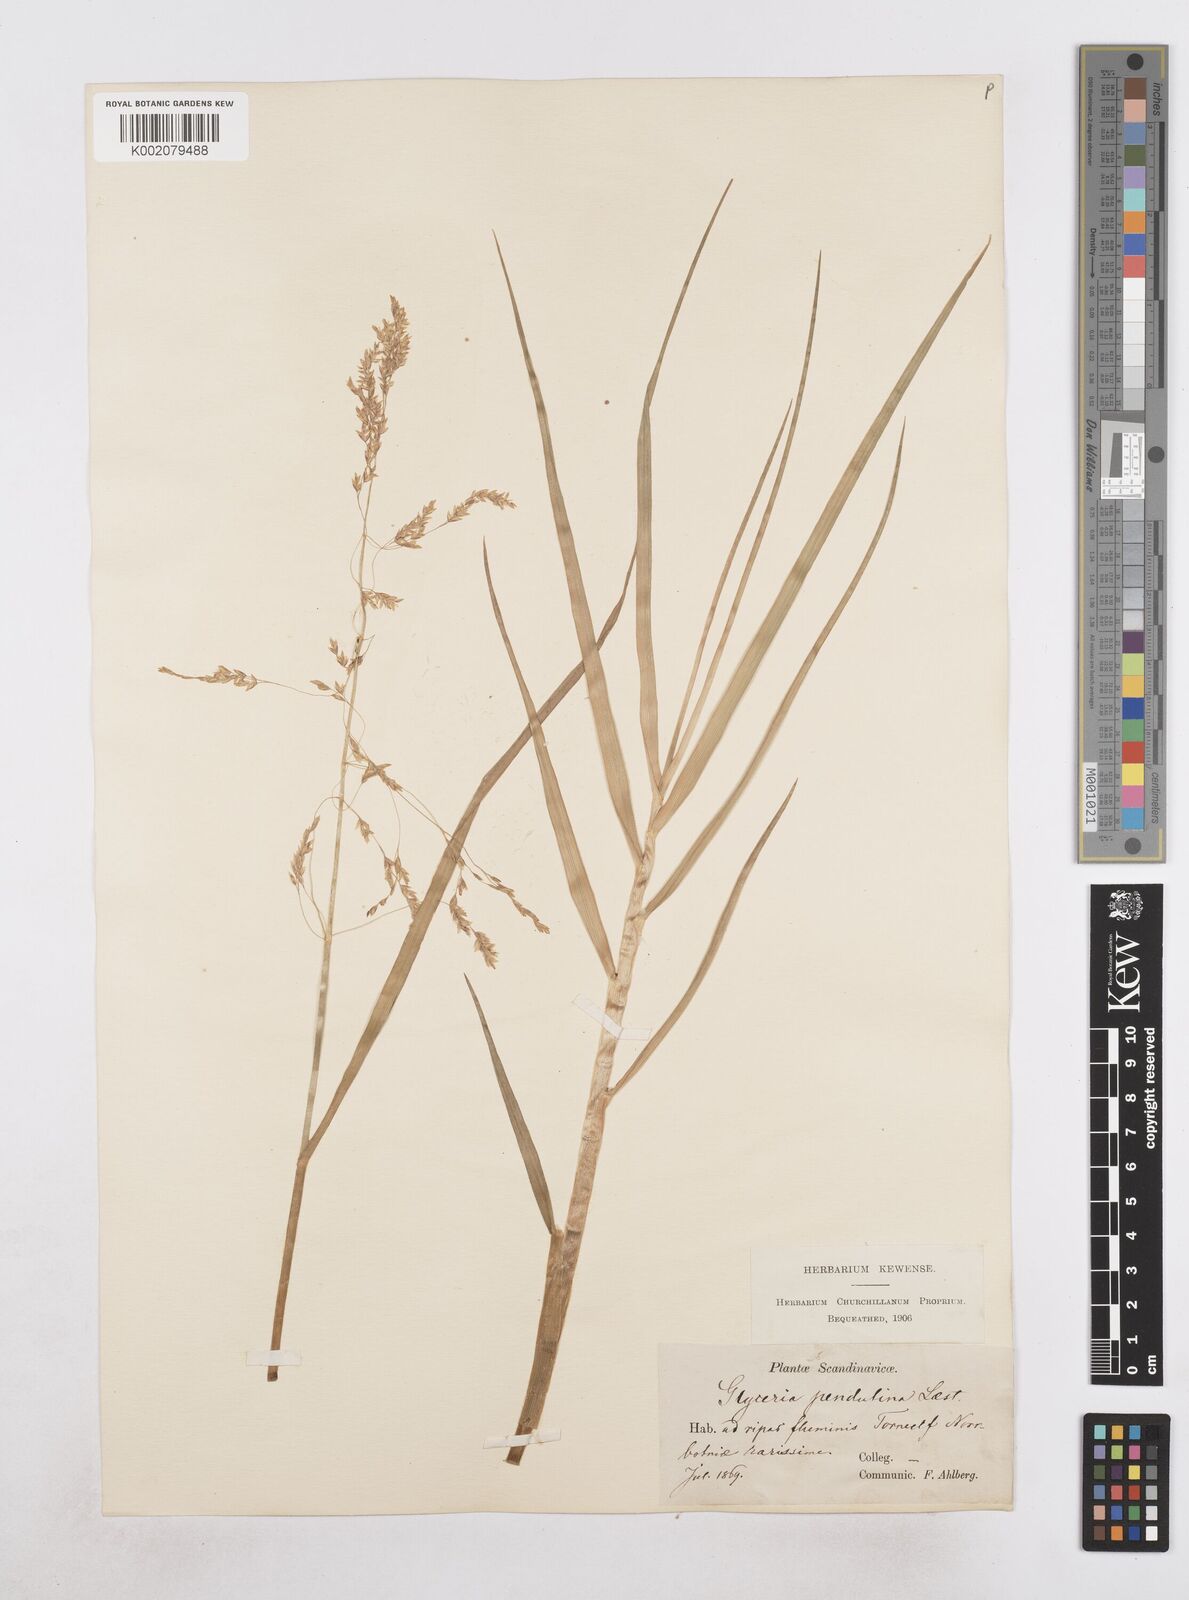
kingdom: Plantae
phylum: Tracheophyta
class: Liliopsida
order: Poales
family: Poaceae
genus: Dupontia
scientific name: Dupontia fulva
